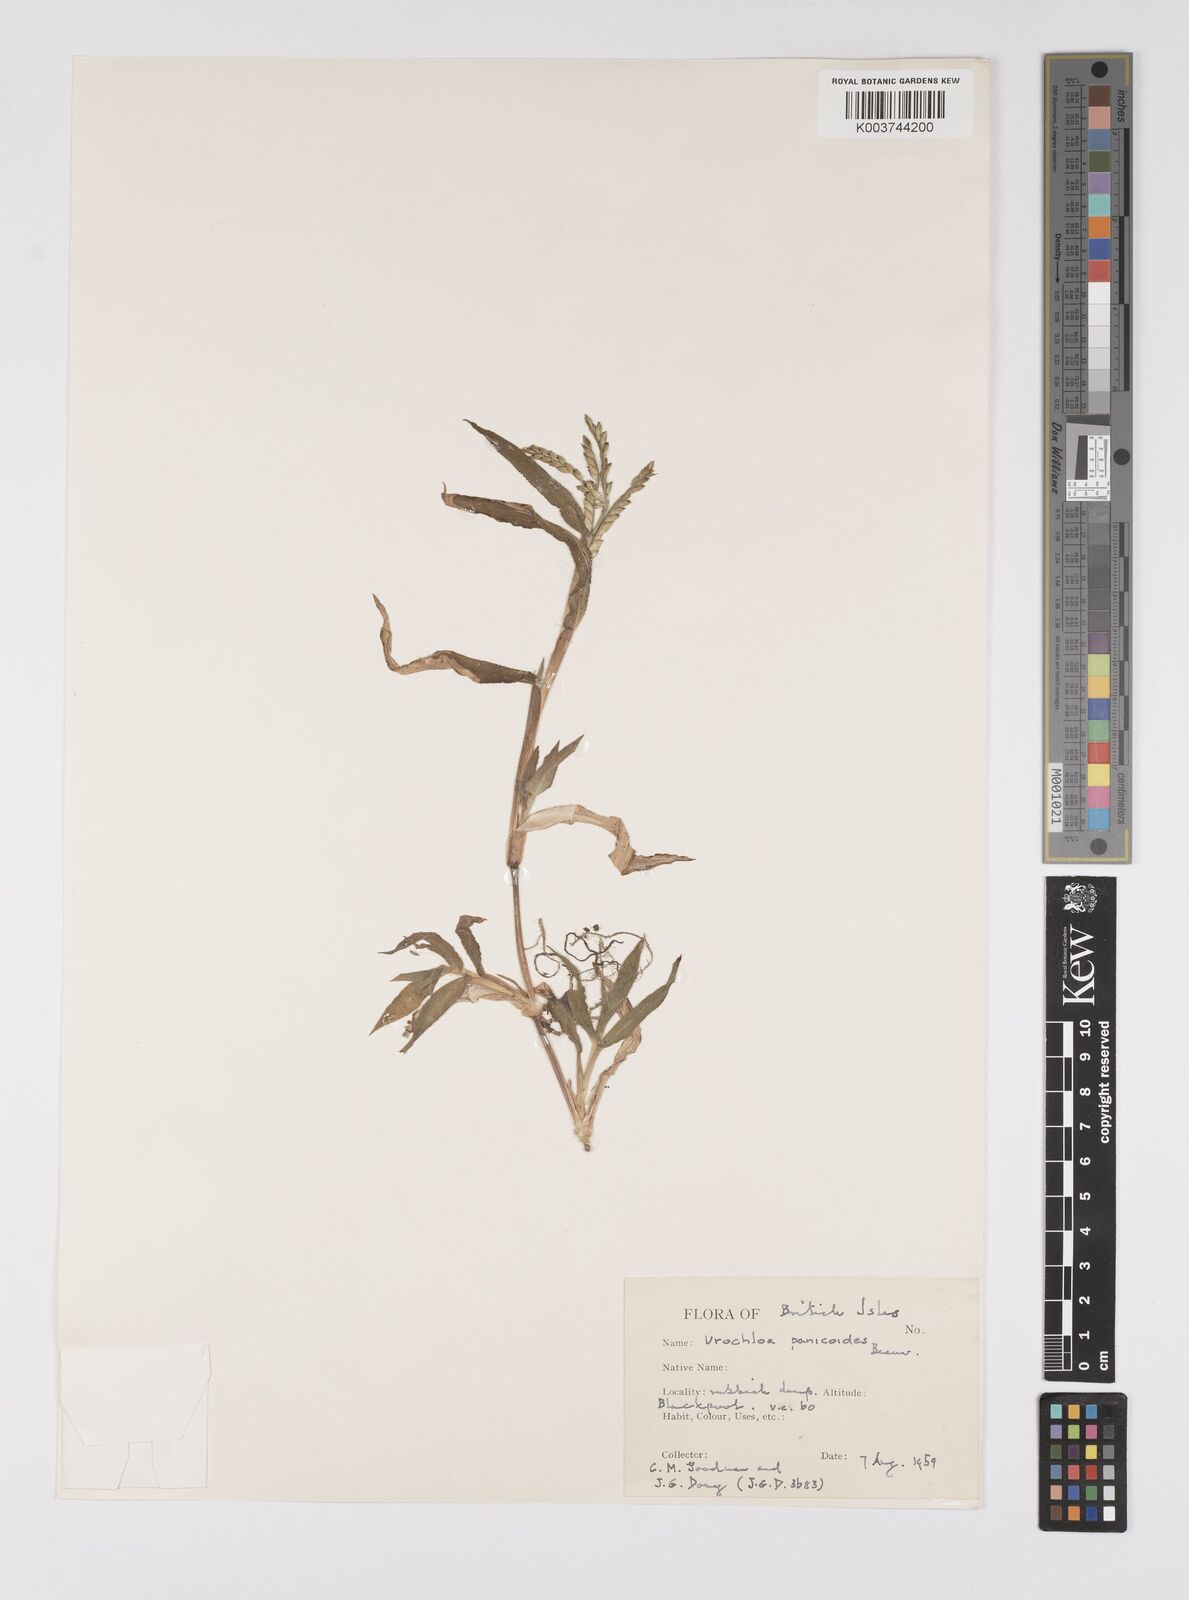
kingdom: Plantae
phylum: Tracheophyta
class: Liliopsida
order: Poales
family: Poaceae
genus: Urochloa
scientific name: Urochloa panicoides
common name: Sharp-flowered signal-grass
